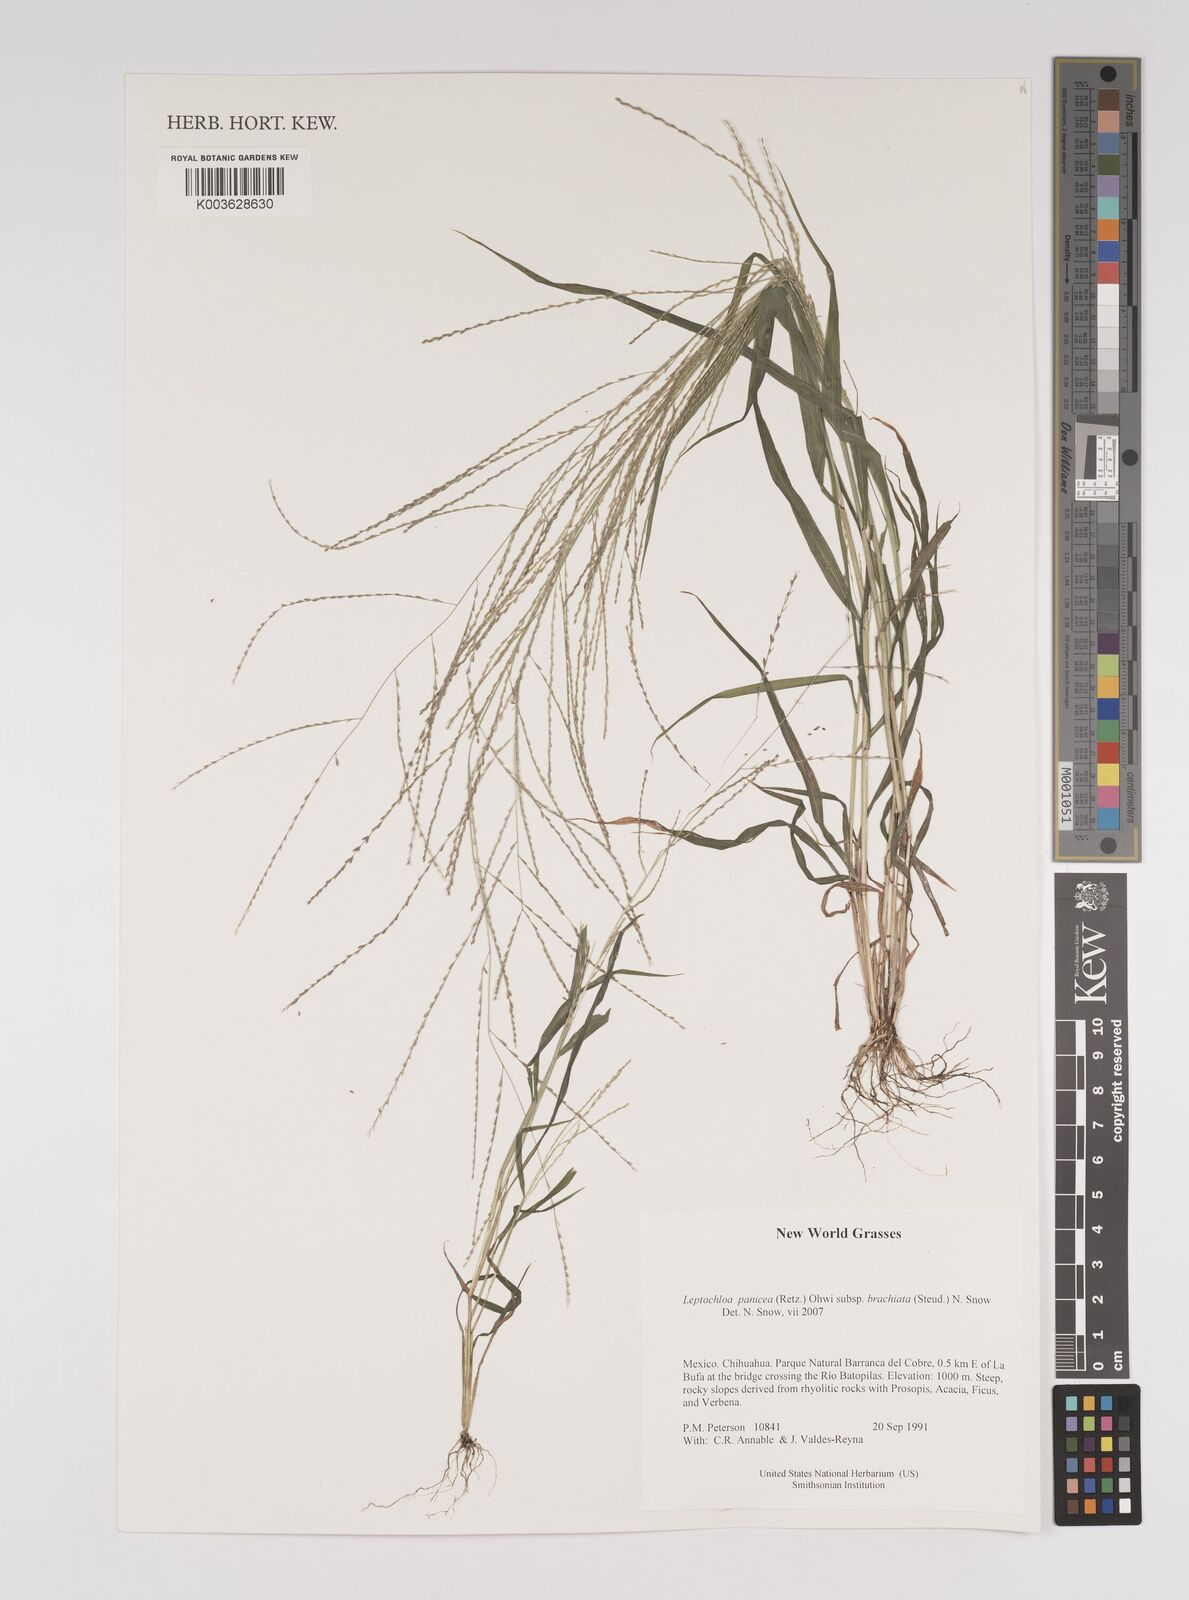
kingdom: Plantae
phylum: Tracheophyta
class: Liliopsida
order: Poales
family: Poaceae
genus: Leptochloa
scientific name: Leptochloa panicea
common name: Mucronate sprangletop
